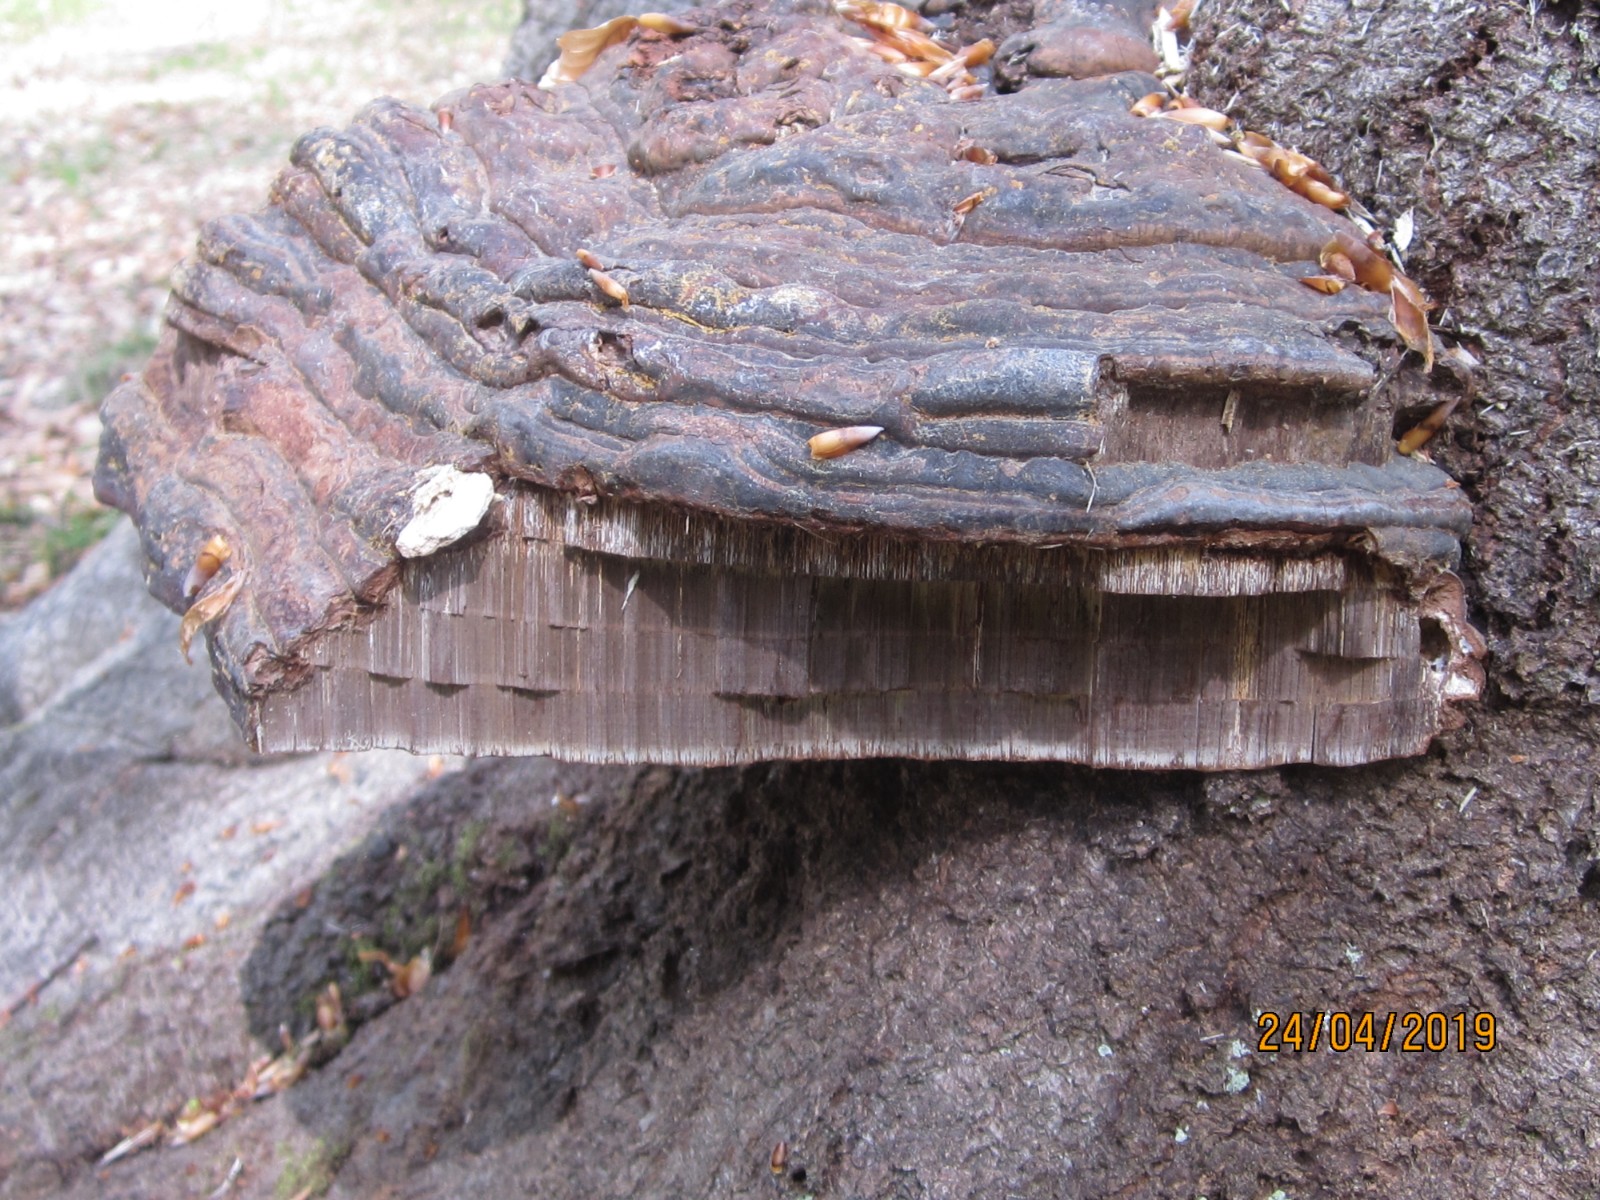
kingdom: Fungi
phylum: Basidiomycota
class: Agaricomycetes
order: Polyporales
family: Polyporaceae
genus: Ganoderma
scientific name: Ganoderma pfeifferi
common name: kobberrød lakporesvamp
